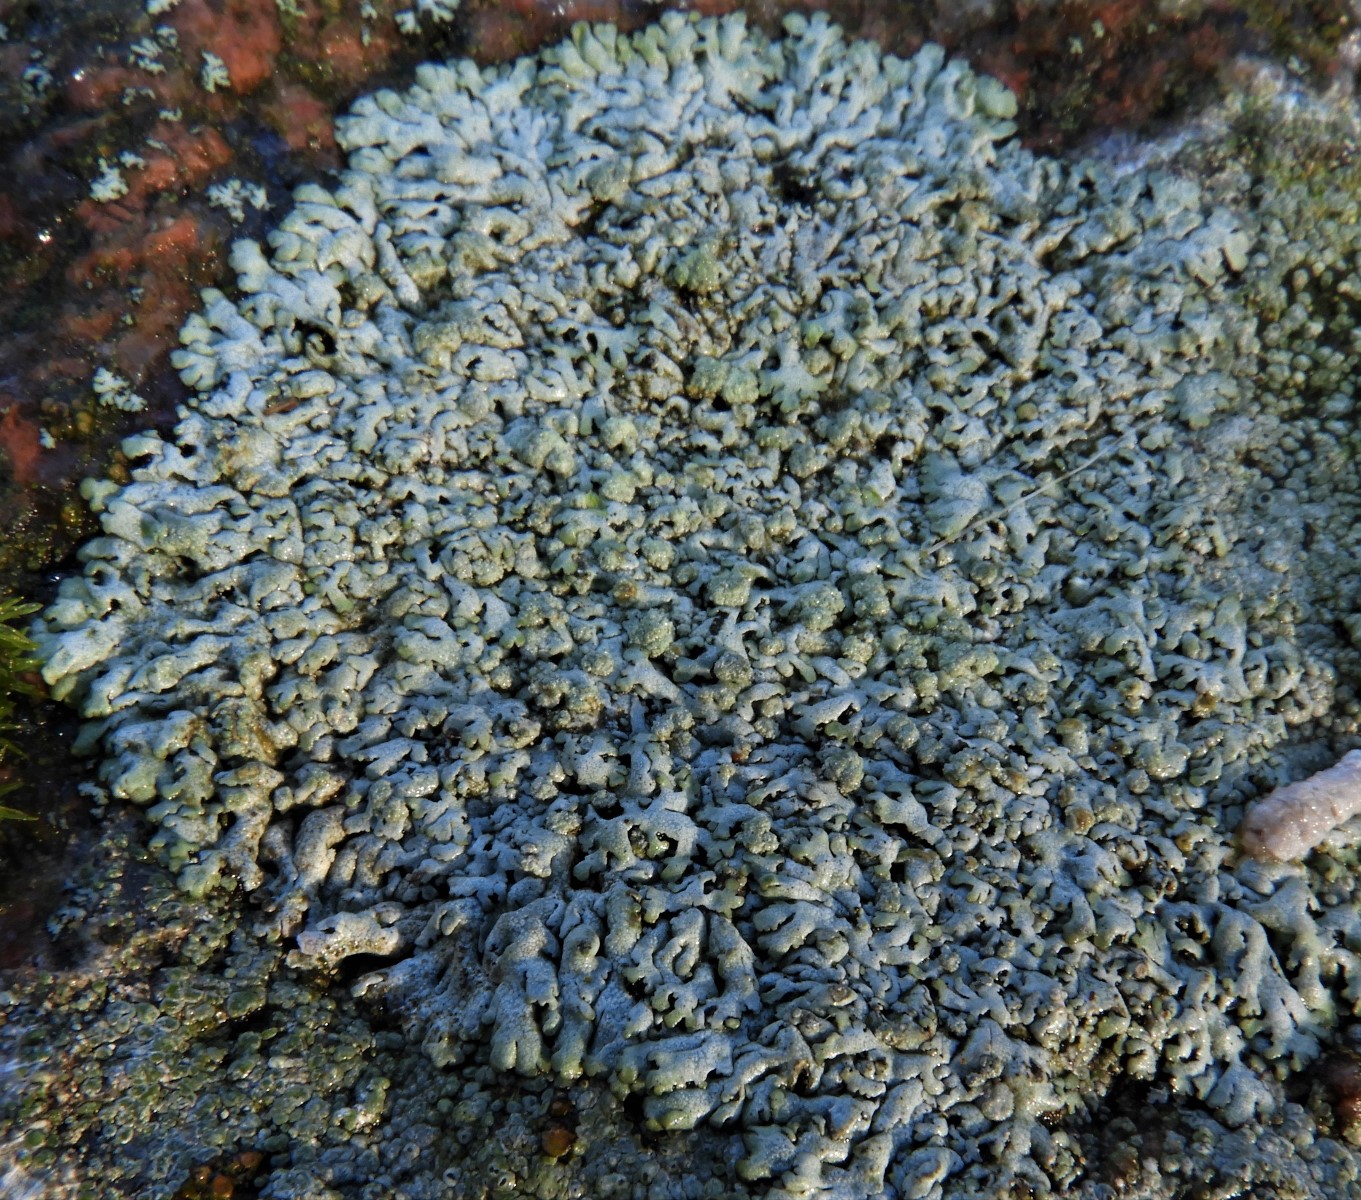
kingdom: Fungi
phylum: Ascomycota
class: Lecanoromycetes
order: Caliciales
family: Physciaceae
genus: Physcia
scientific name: Physcia caesia
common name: blågrå rosetlav
